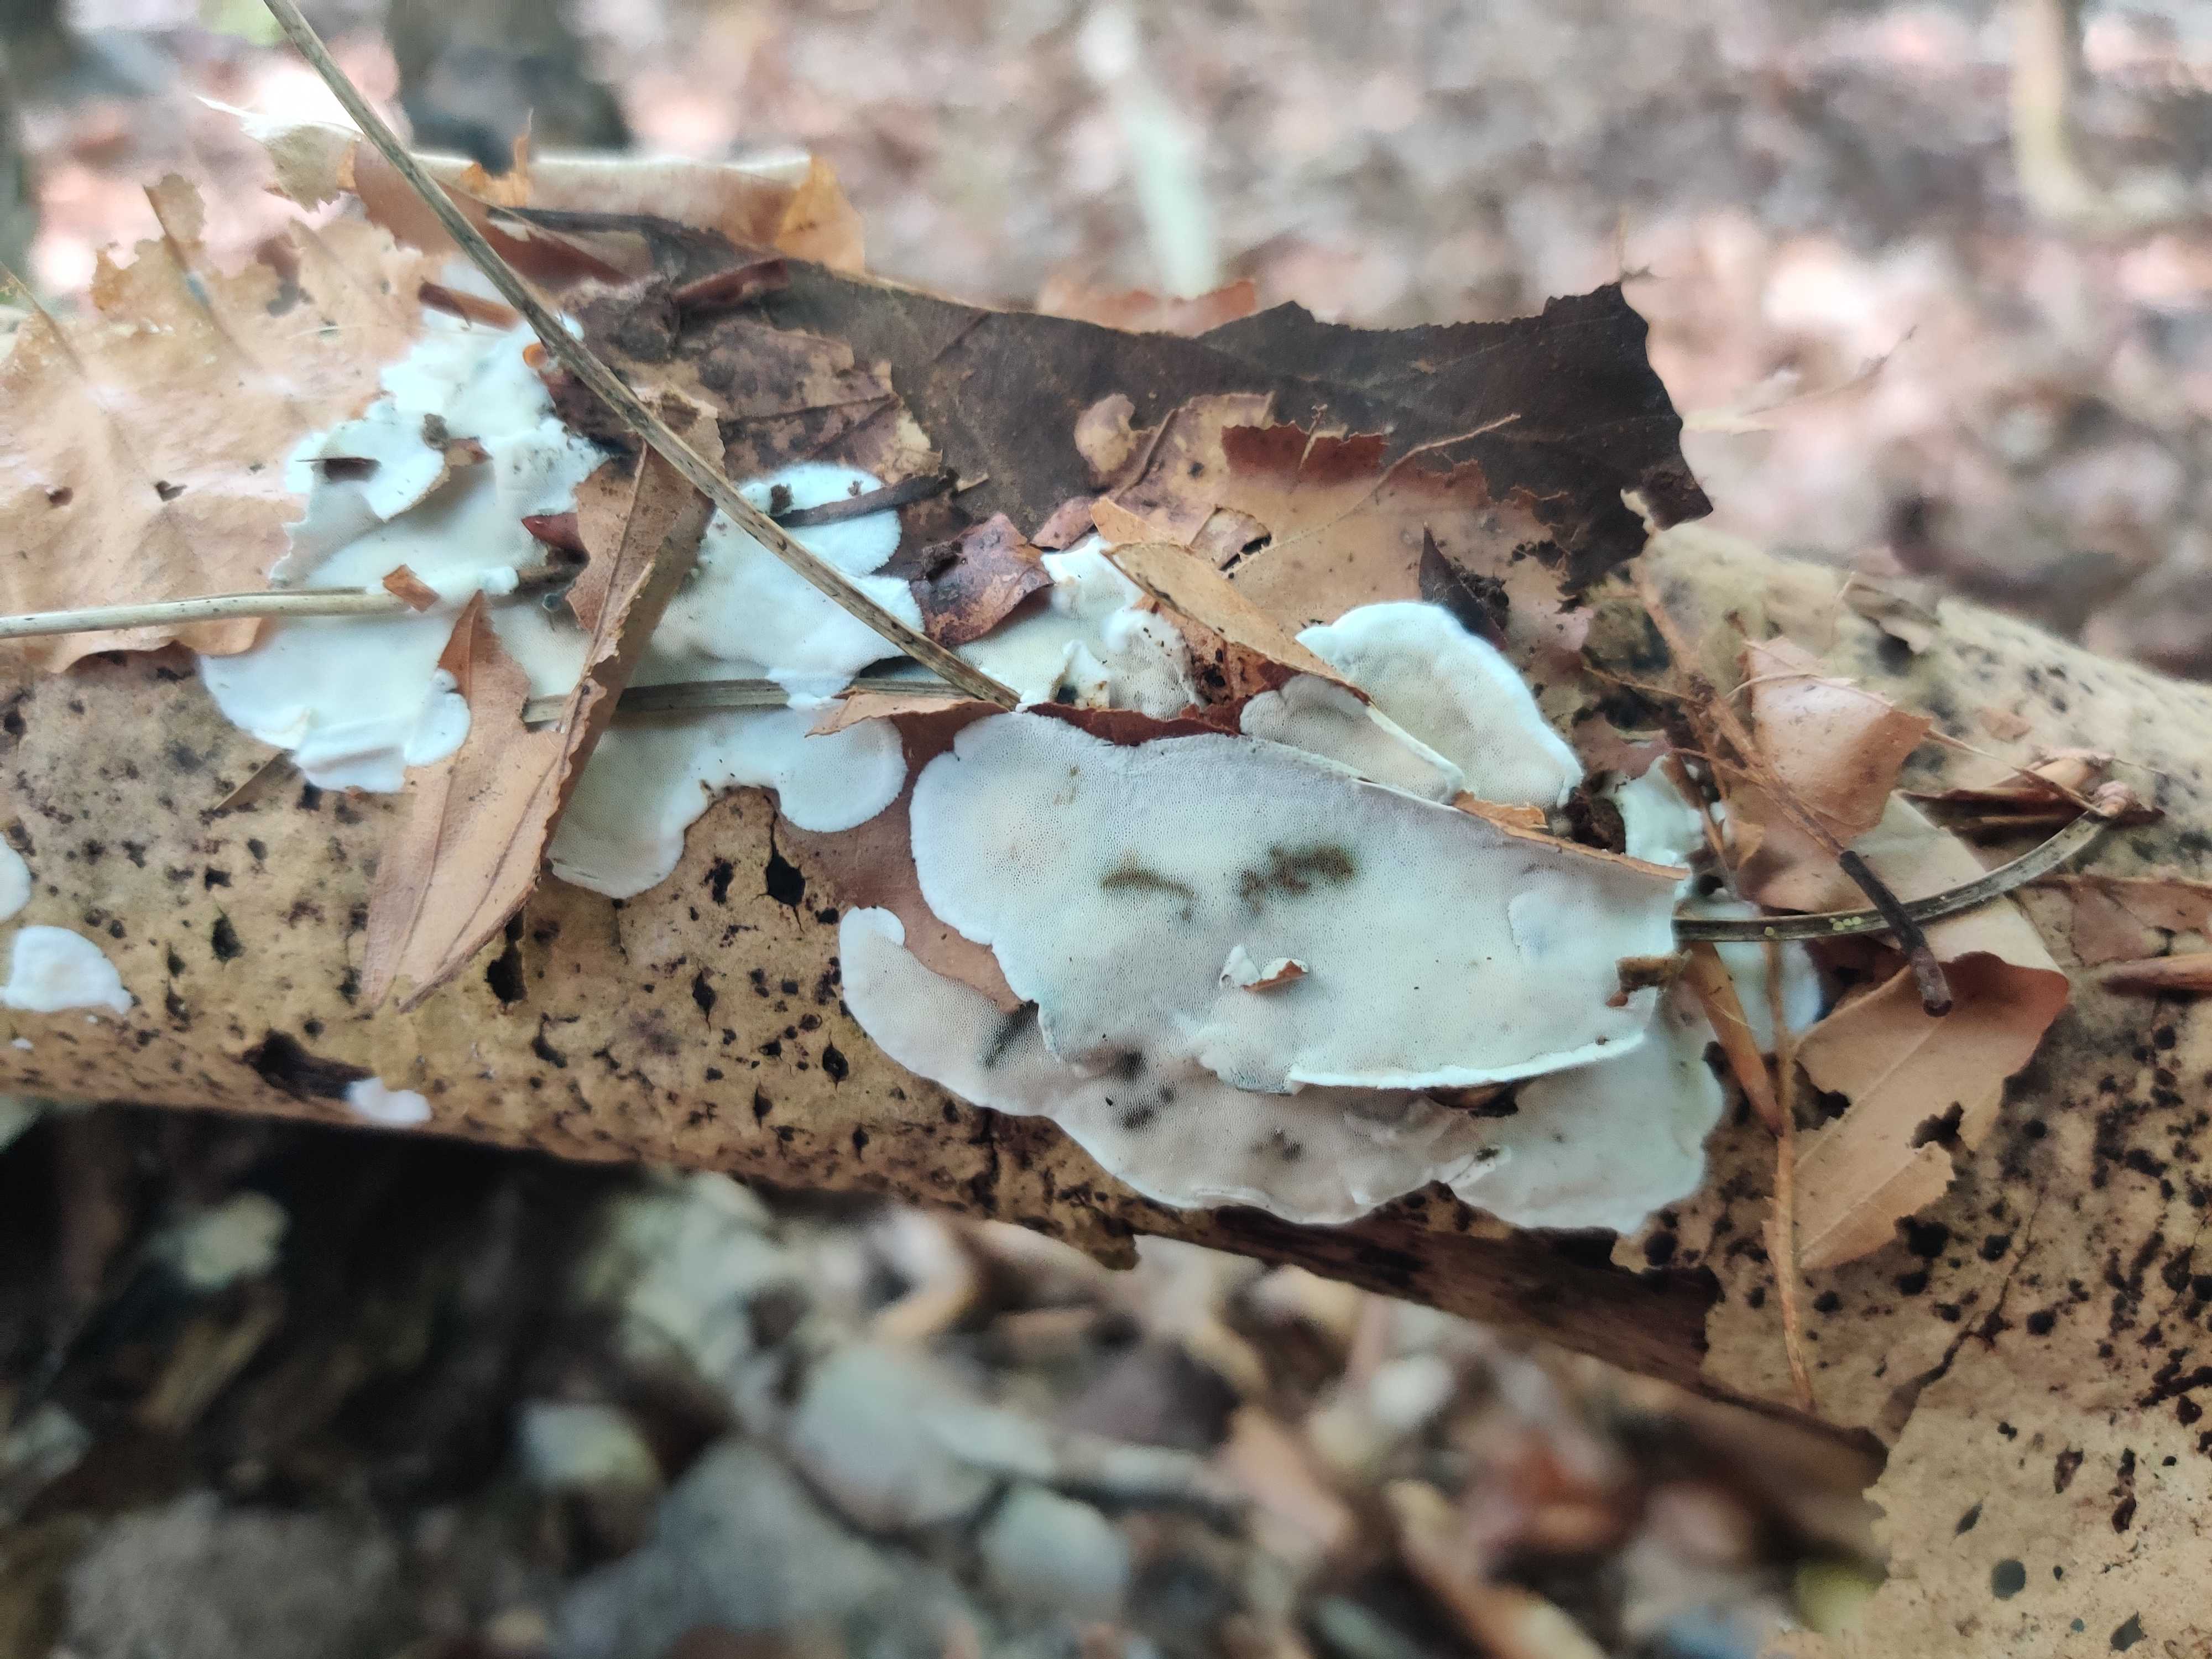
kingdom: Fungi
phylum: Basidiomycota
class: Agaricomycetes
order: Polyporales
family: Incrustoporiaceae
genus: Skeletocutis
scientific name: Skeletocutis nemoralis
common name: stor krystalporesvamp
